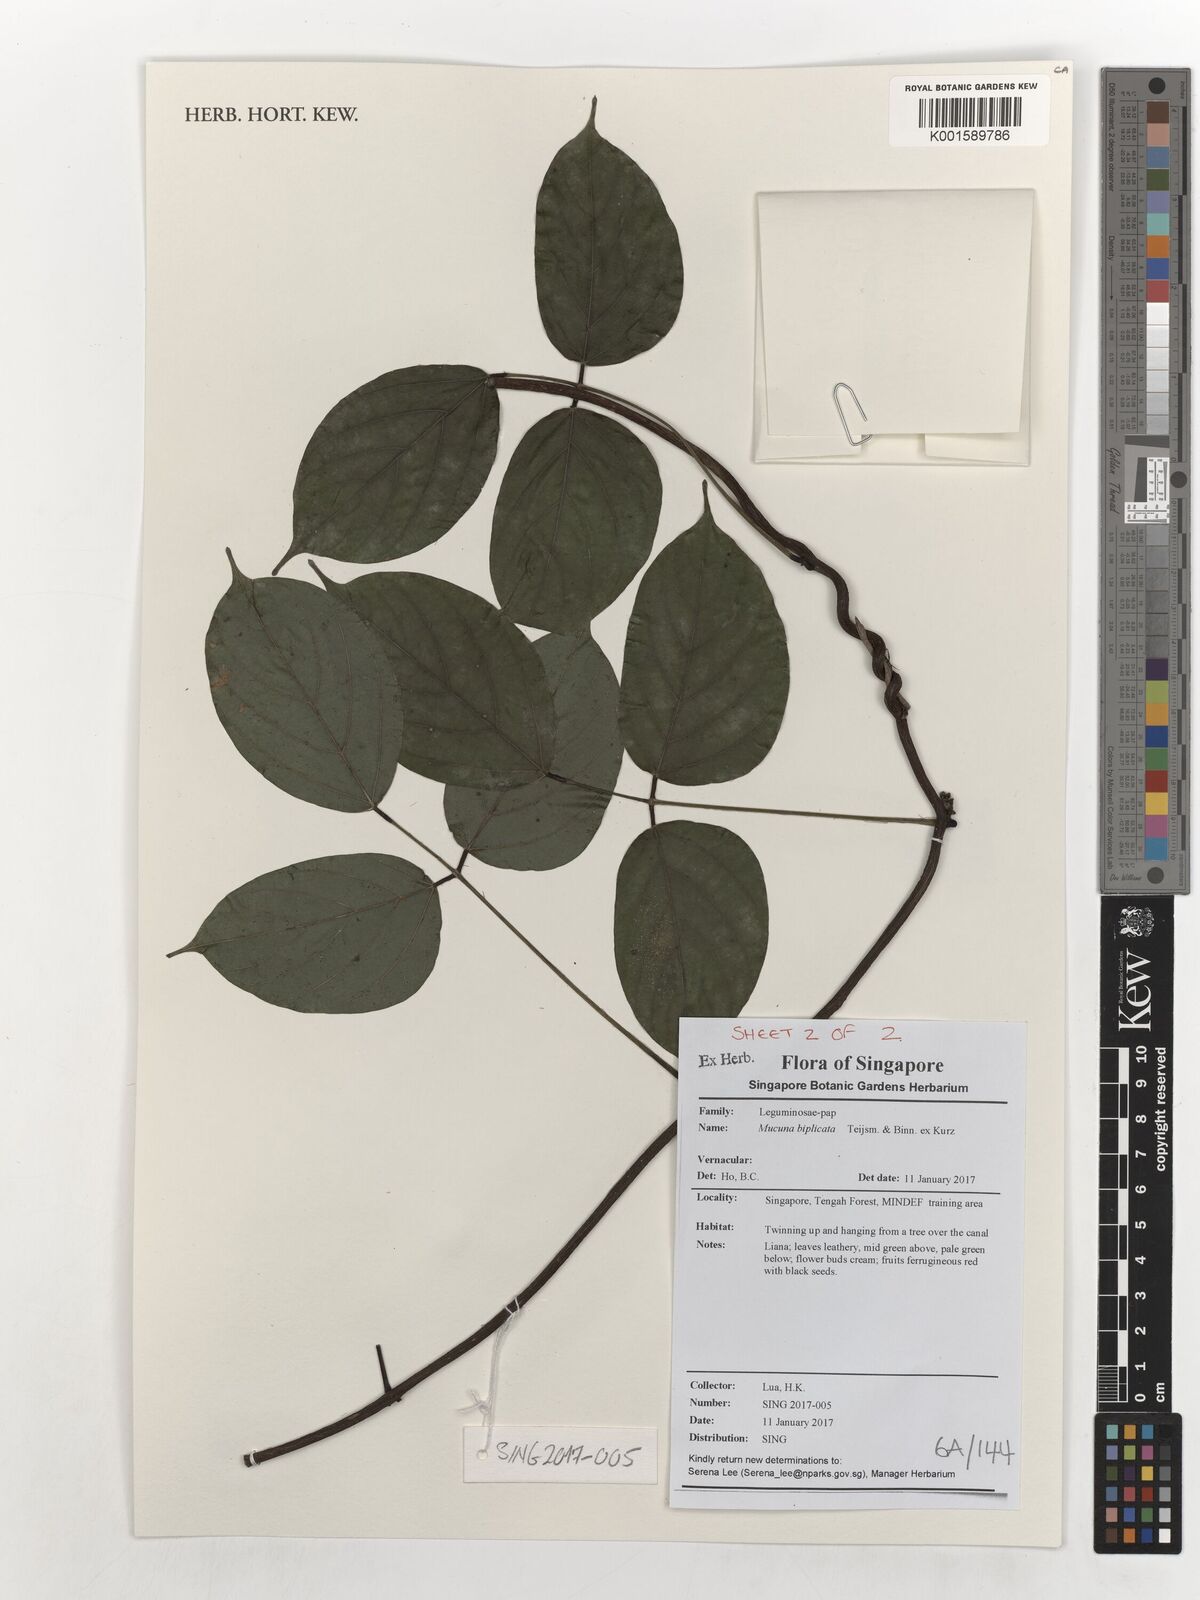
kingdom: Plantae
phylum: Tracheophyta
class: Magnoliopsida
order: Fabales
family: Fabaceae
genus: Mucuna
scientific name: Mucuna biplicata
